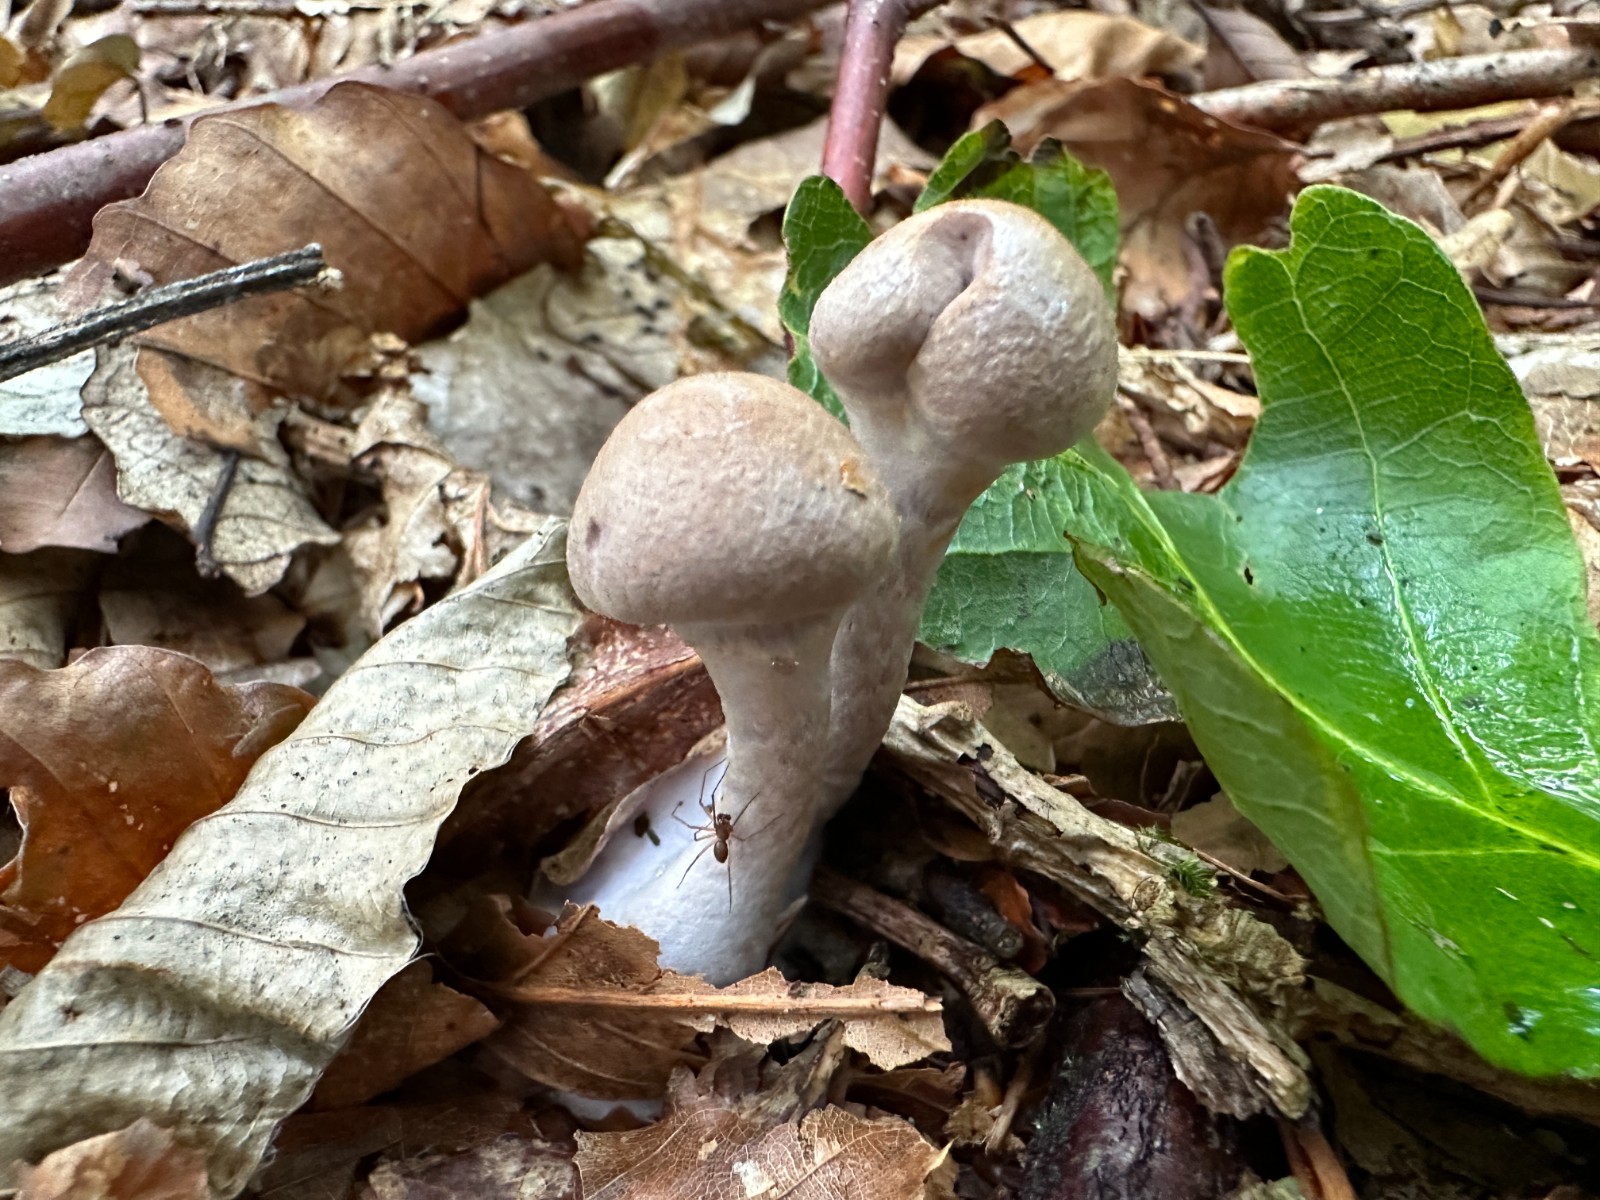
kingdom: Fungi
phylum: Basidiomycota
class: Agaricomycetes
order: Agaricales
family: Cortinariaceae
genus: Cortinarius
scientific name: Cortinarius torvus
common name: champignonagtig slørhat
